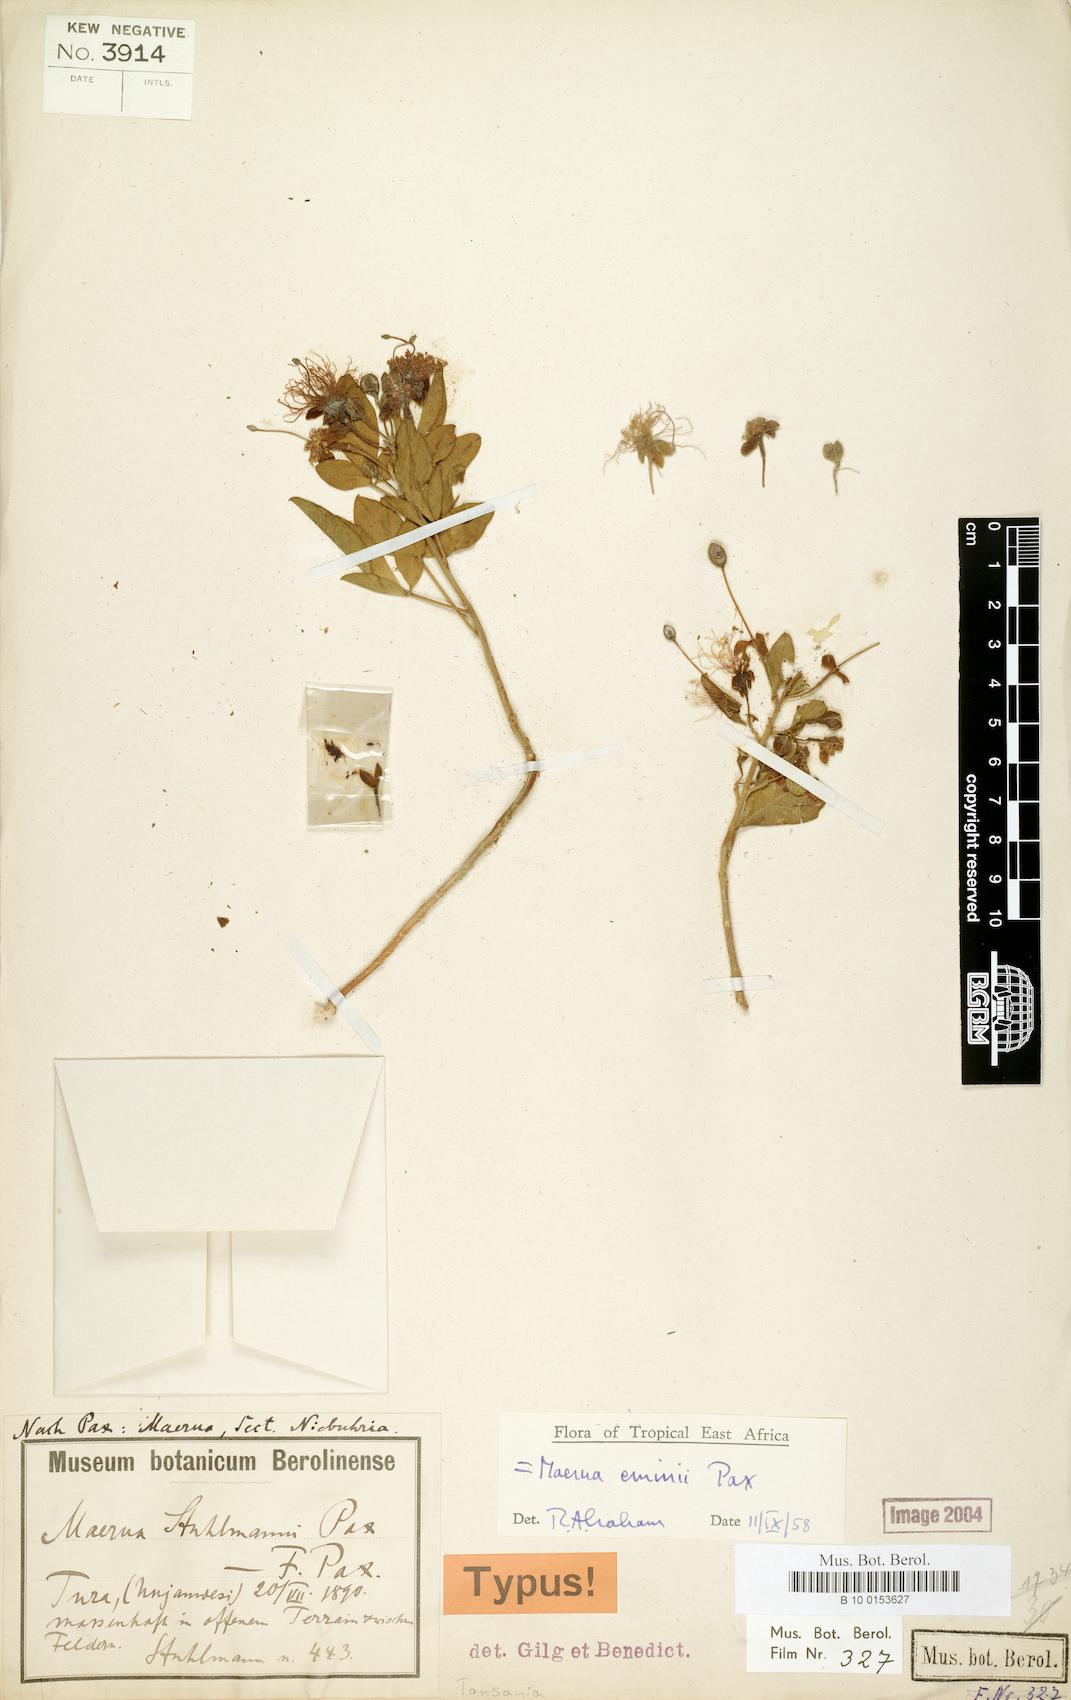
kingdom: Plantae
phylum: Tracheophyta
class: Magnoliopsida
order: Brassicales
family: Capparaceae
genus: Maerua
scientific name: Maerua eminii
